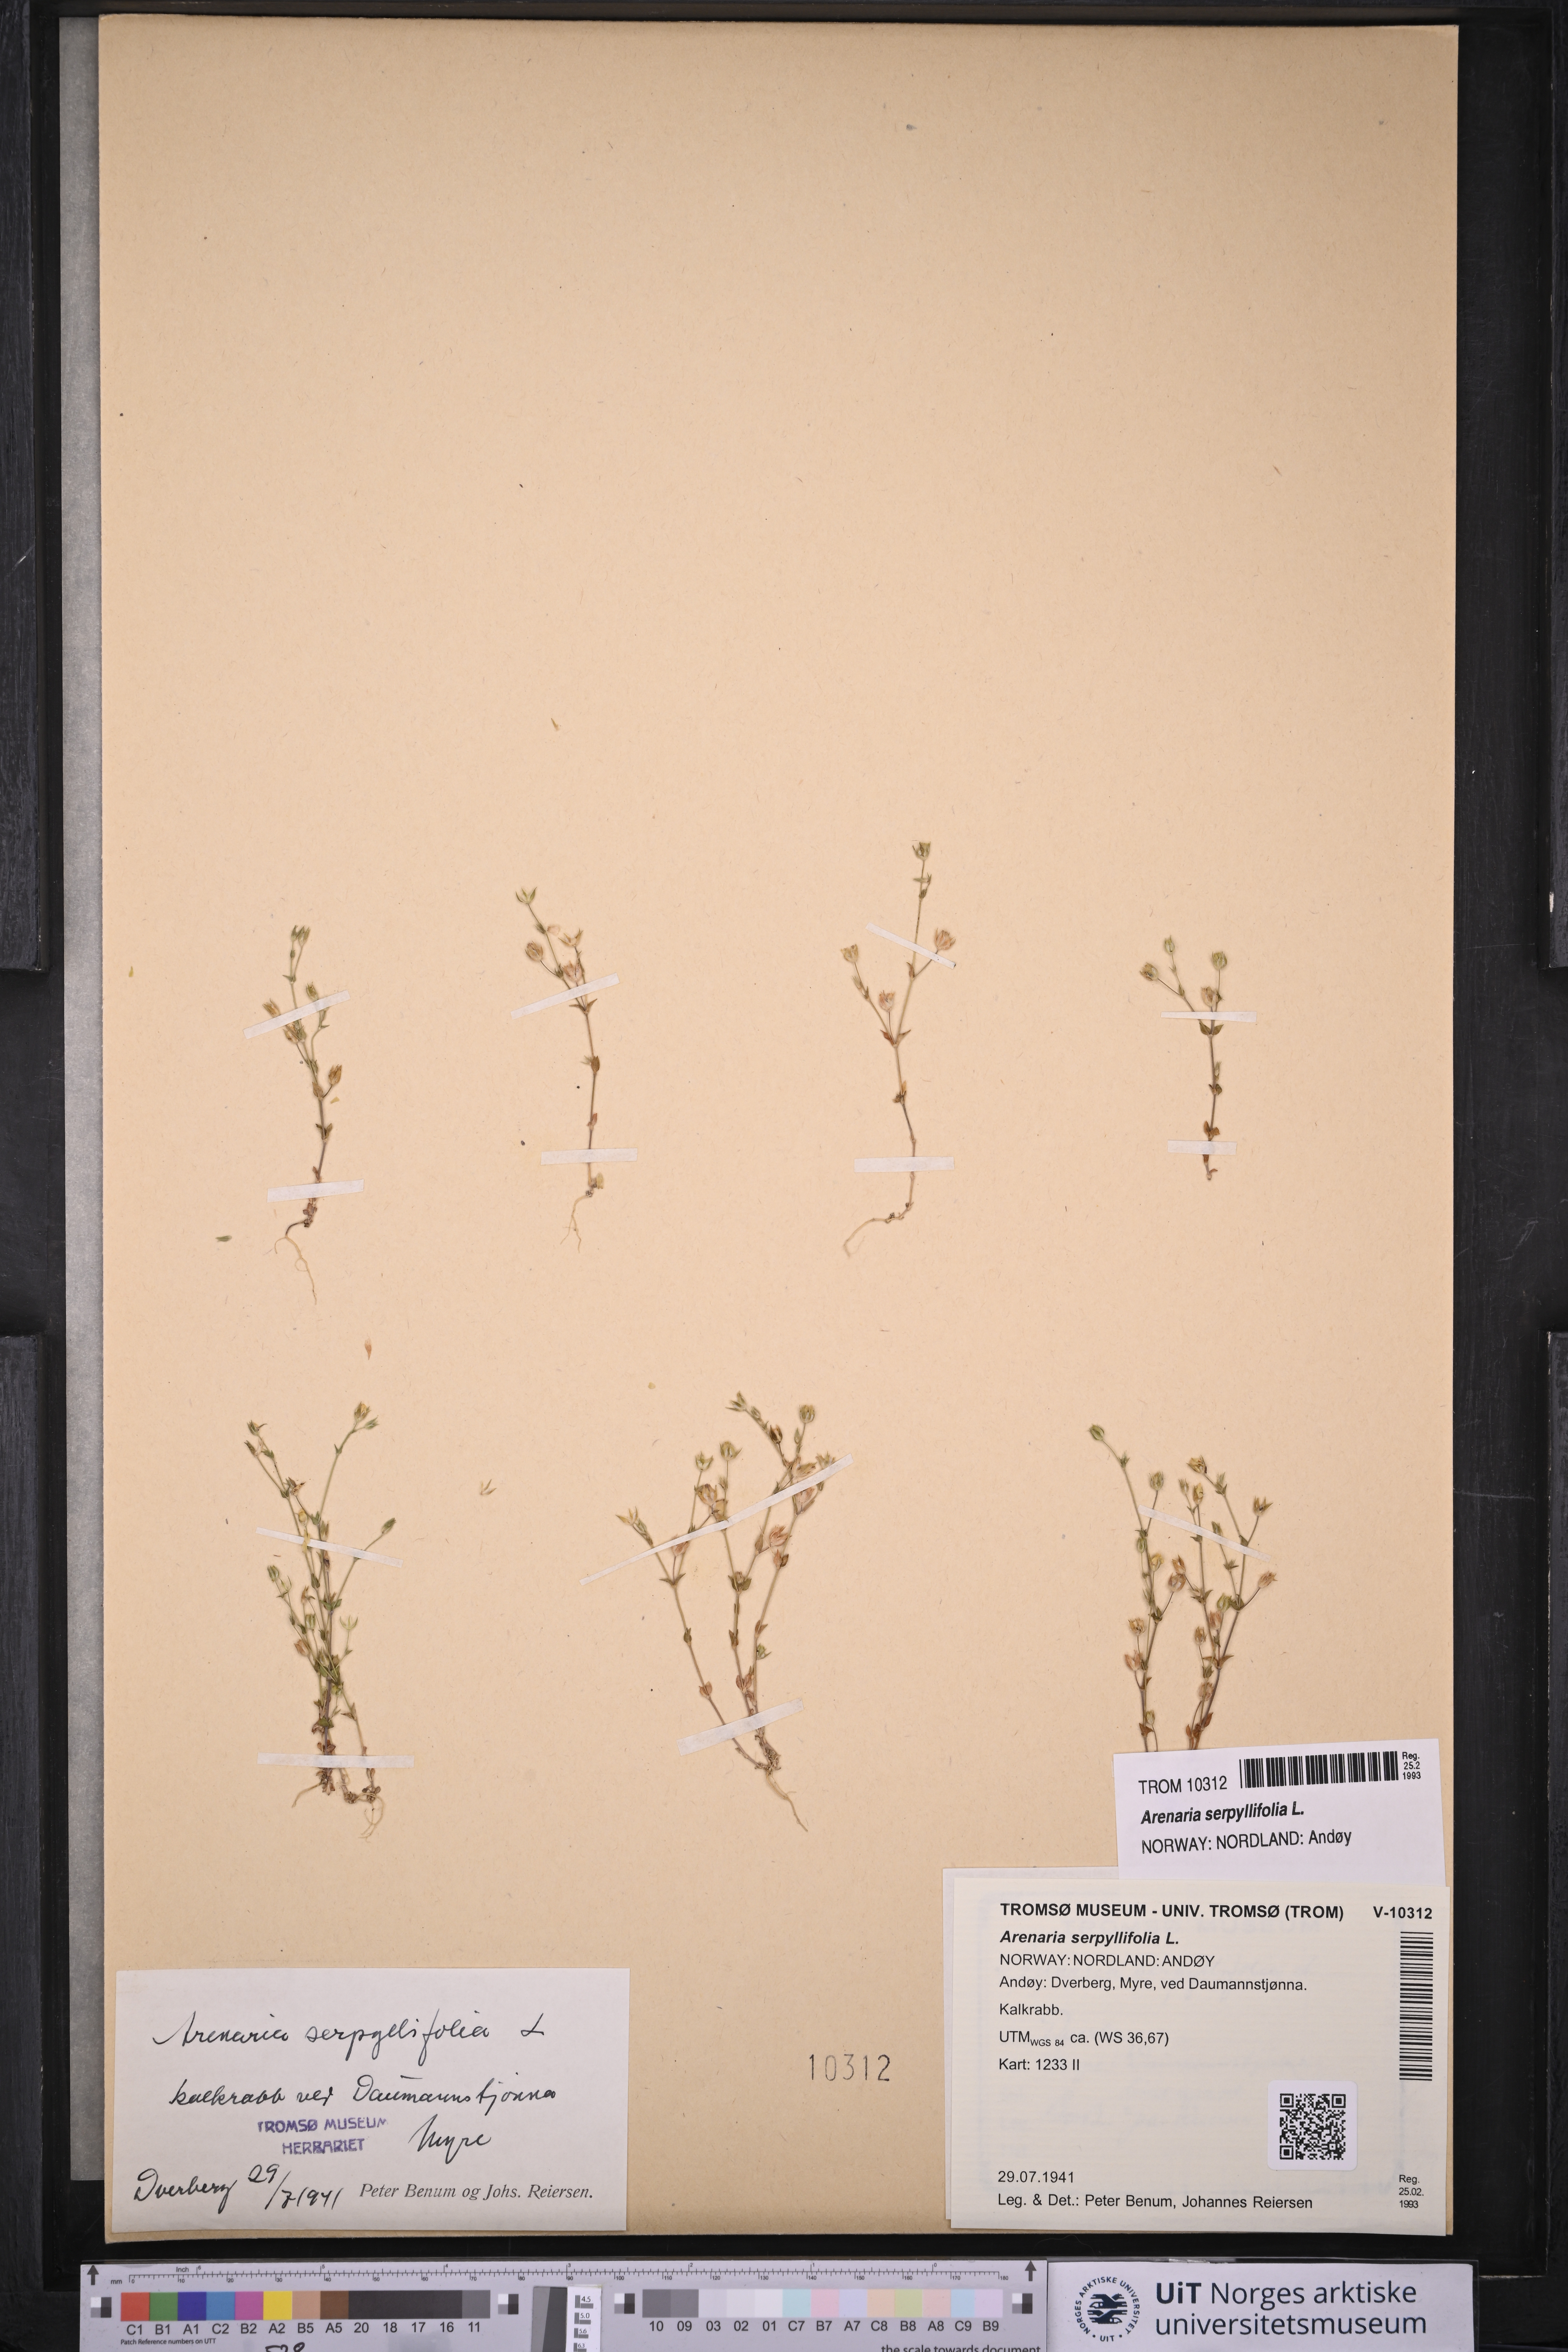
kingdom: Plantae
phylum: Tracheophyta
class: Magnoliopsida
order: Caryophyllales
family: Caryophyllaceae
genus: Arenaria
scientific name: Arenaria serpyllifolia
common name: Thyme-leaved sandwort
